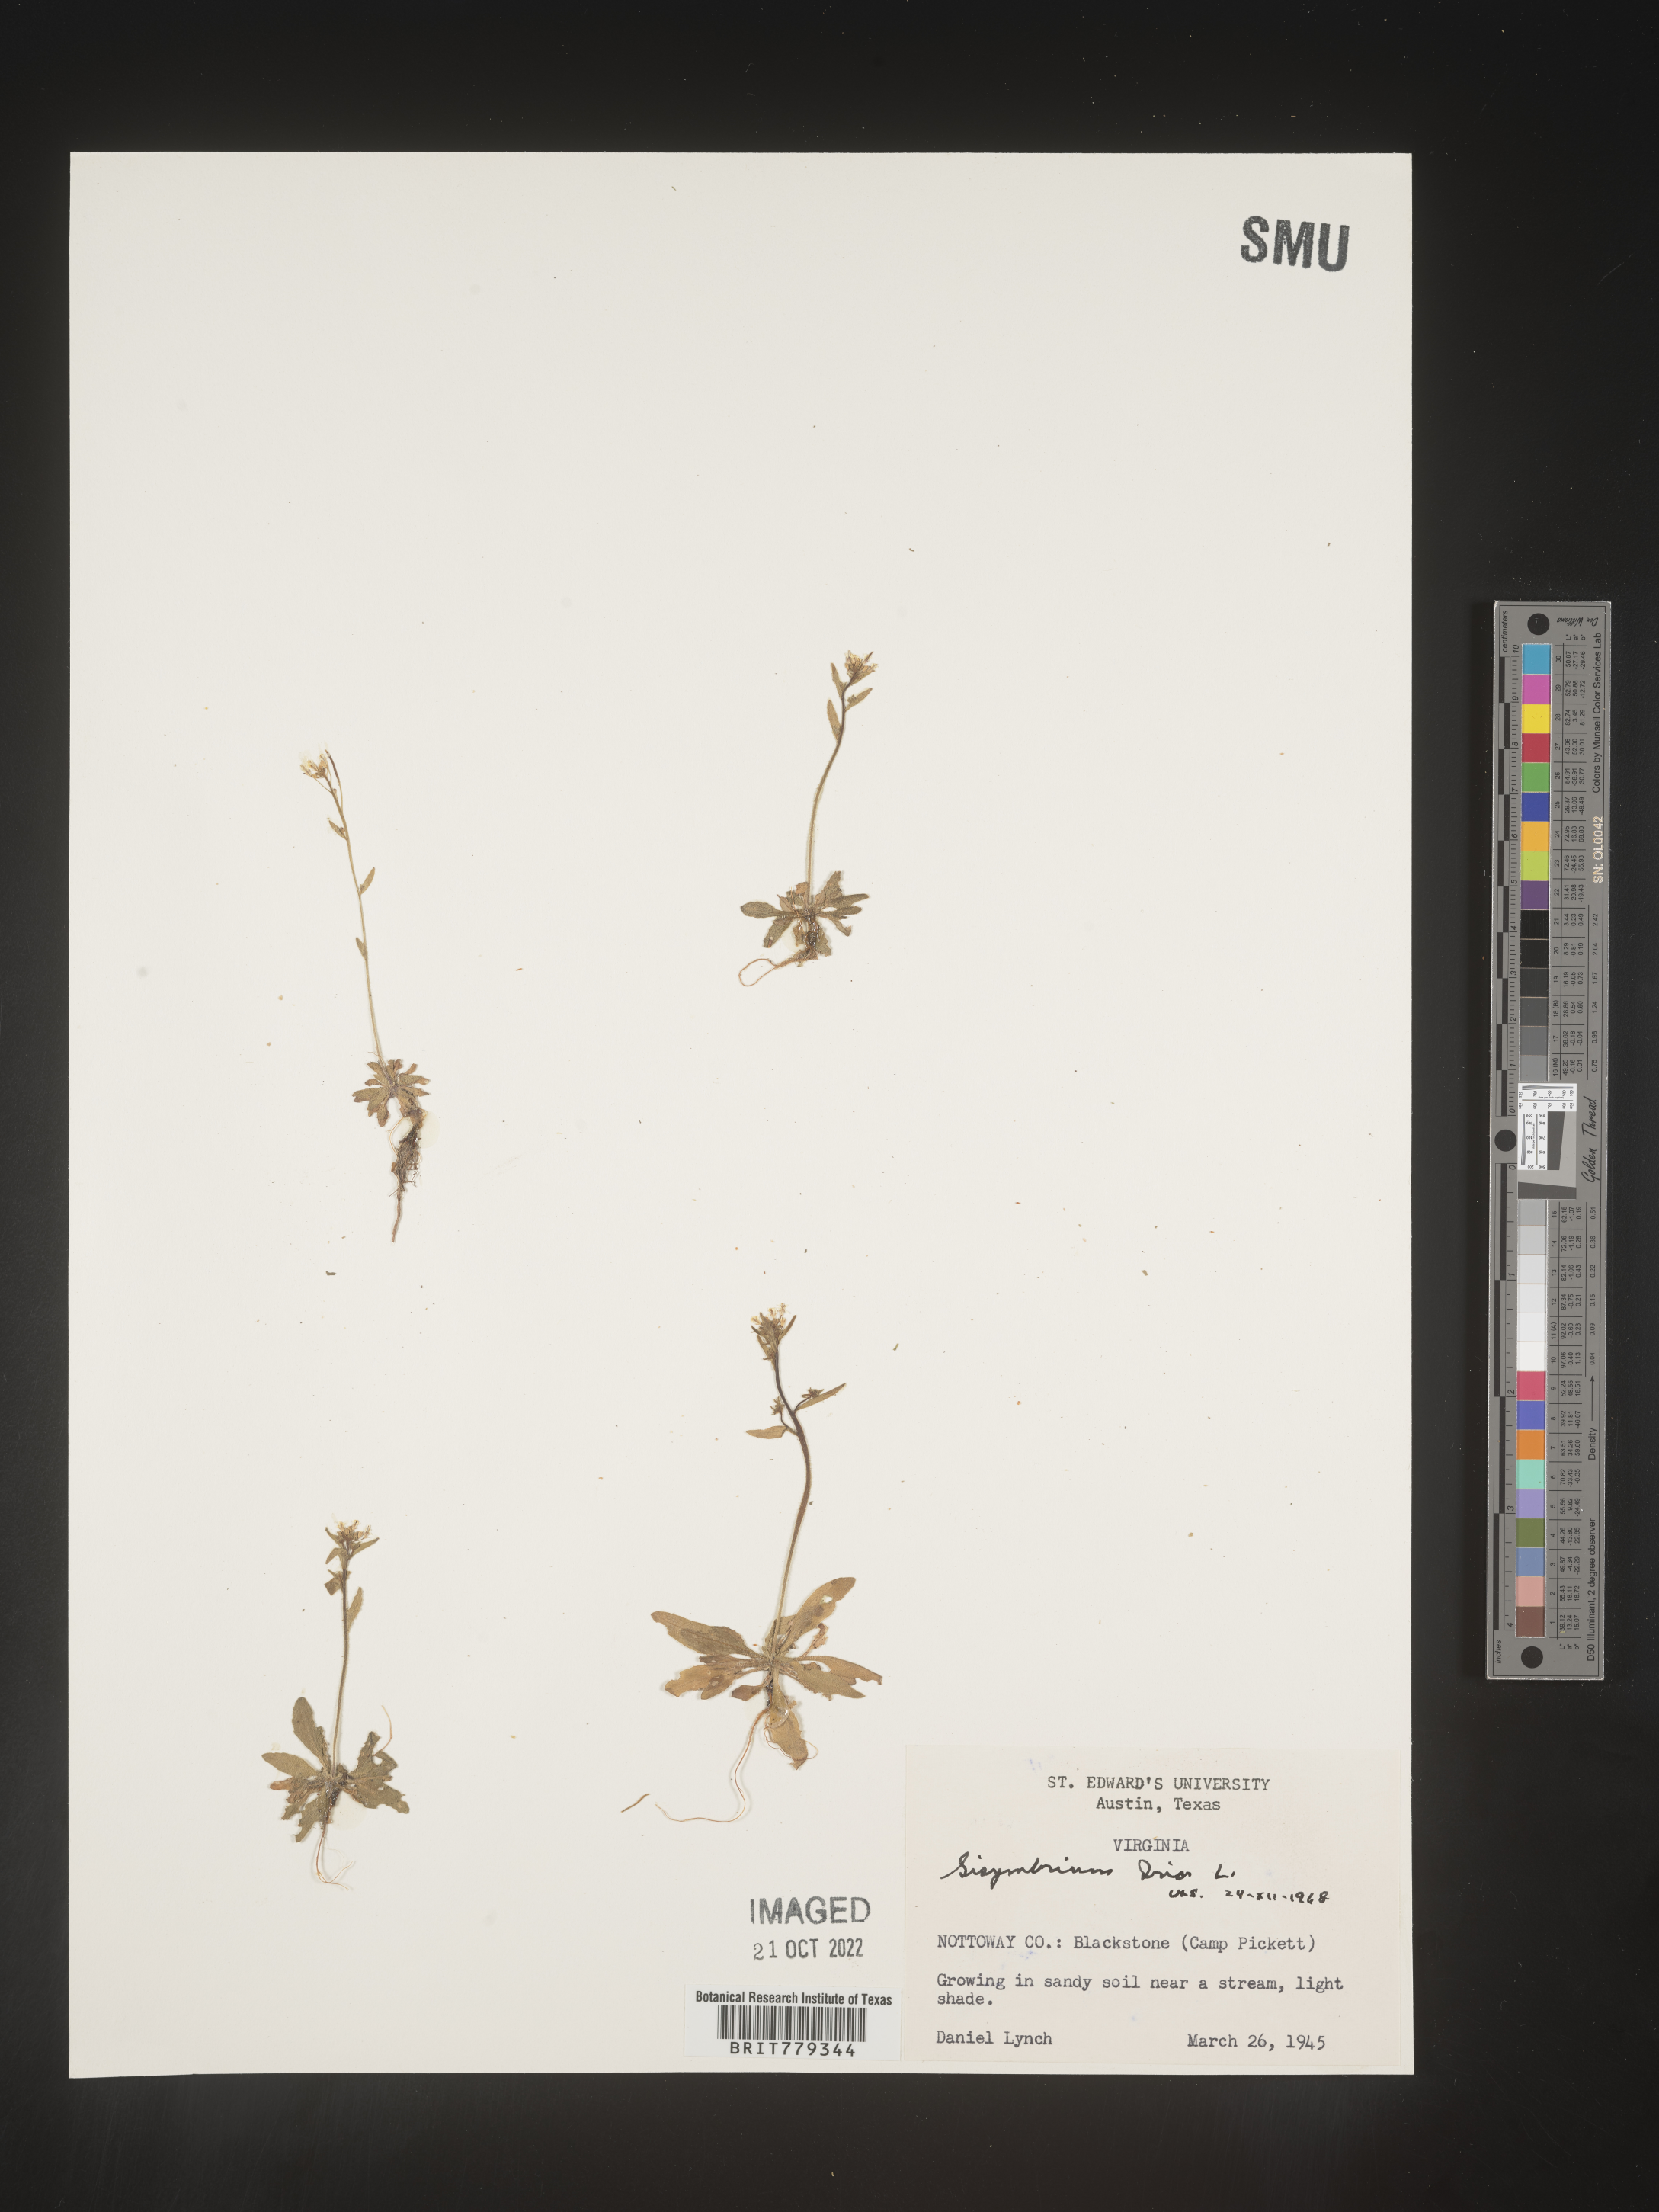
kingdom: Plantae
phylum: Tracheophyta
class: Magnoliopsida
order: Brassicales
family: Brassicaceae
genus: Sisymbrium
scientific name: Sisymbrium
